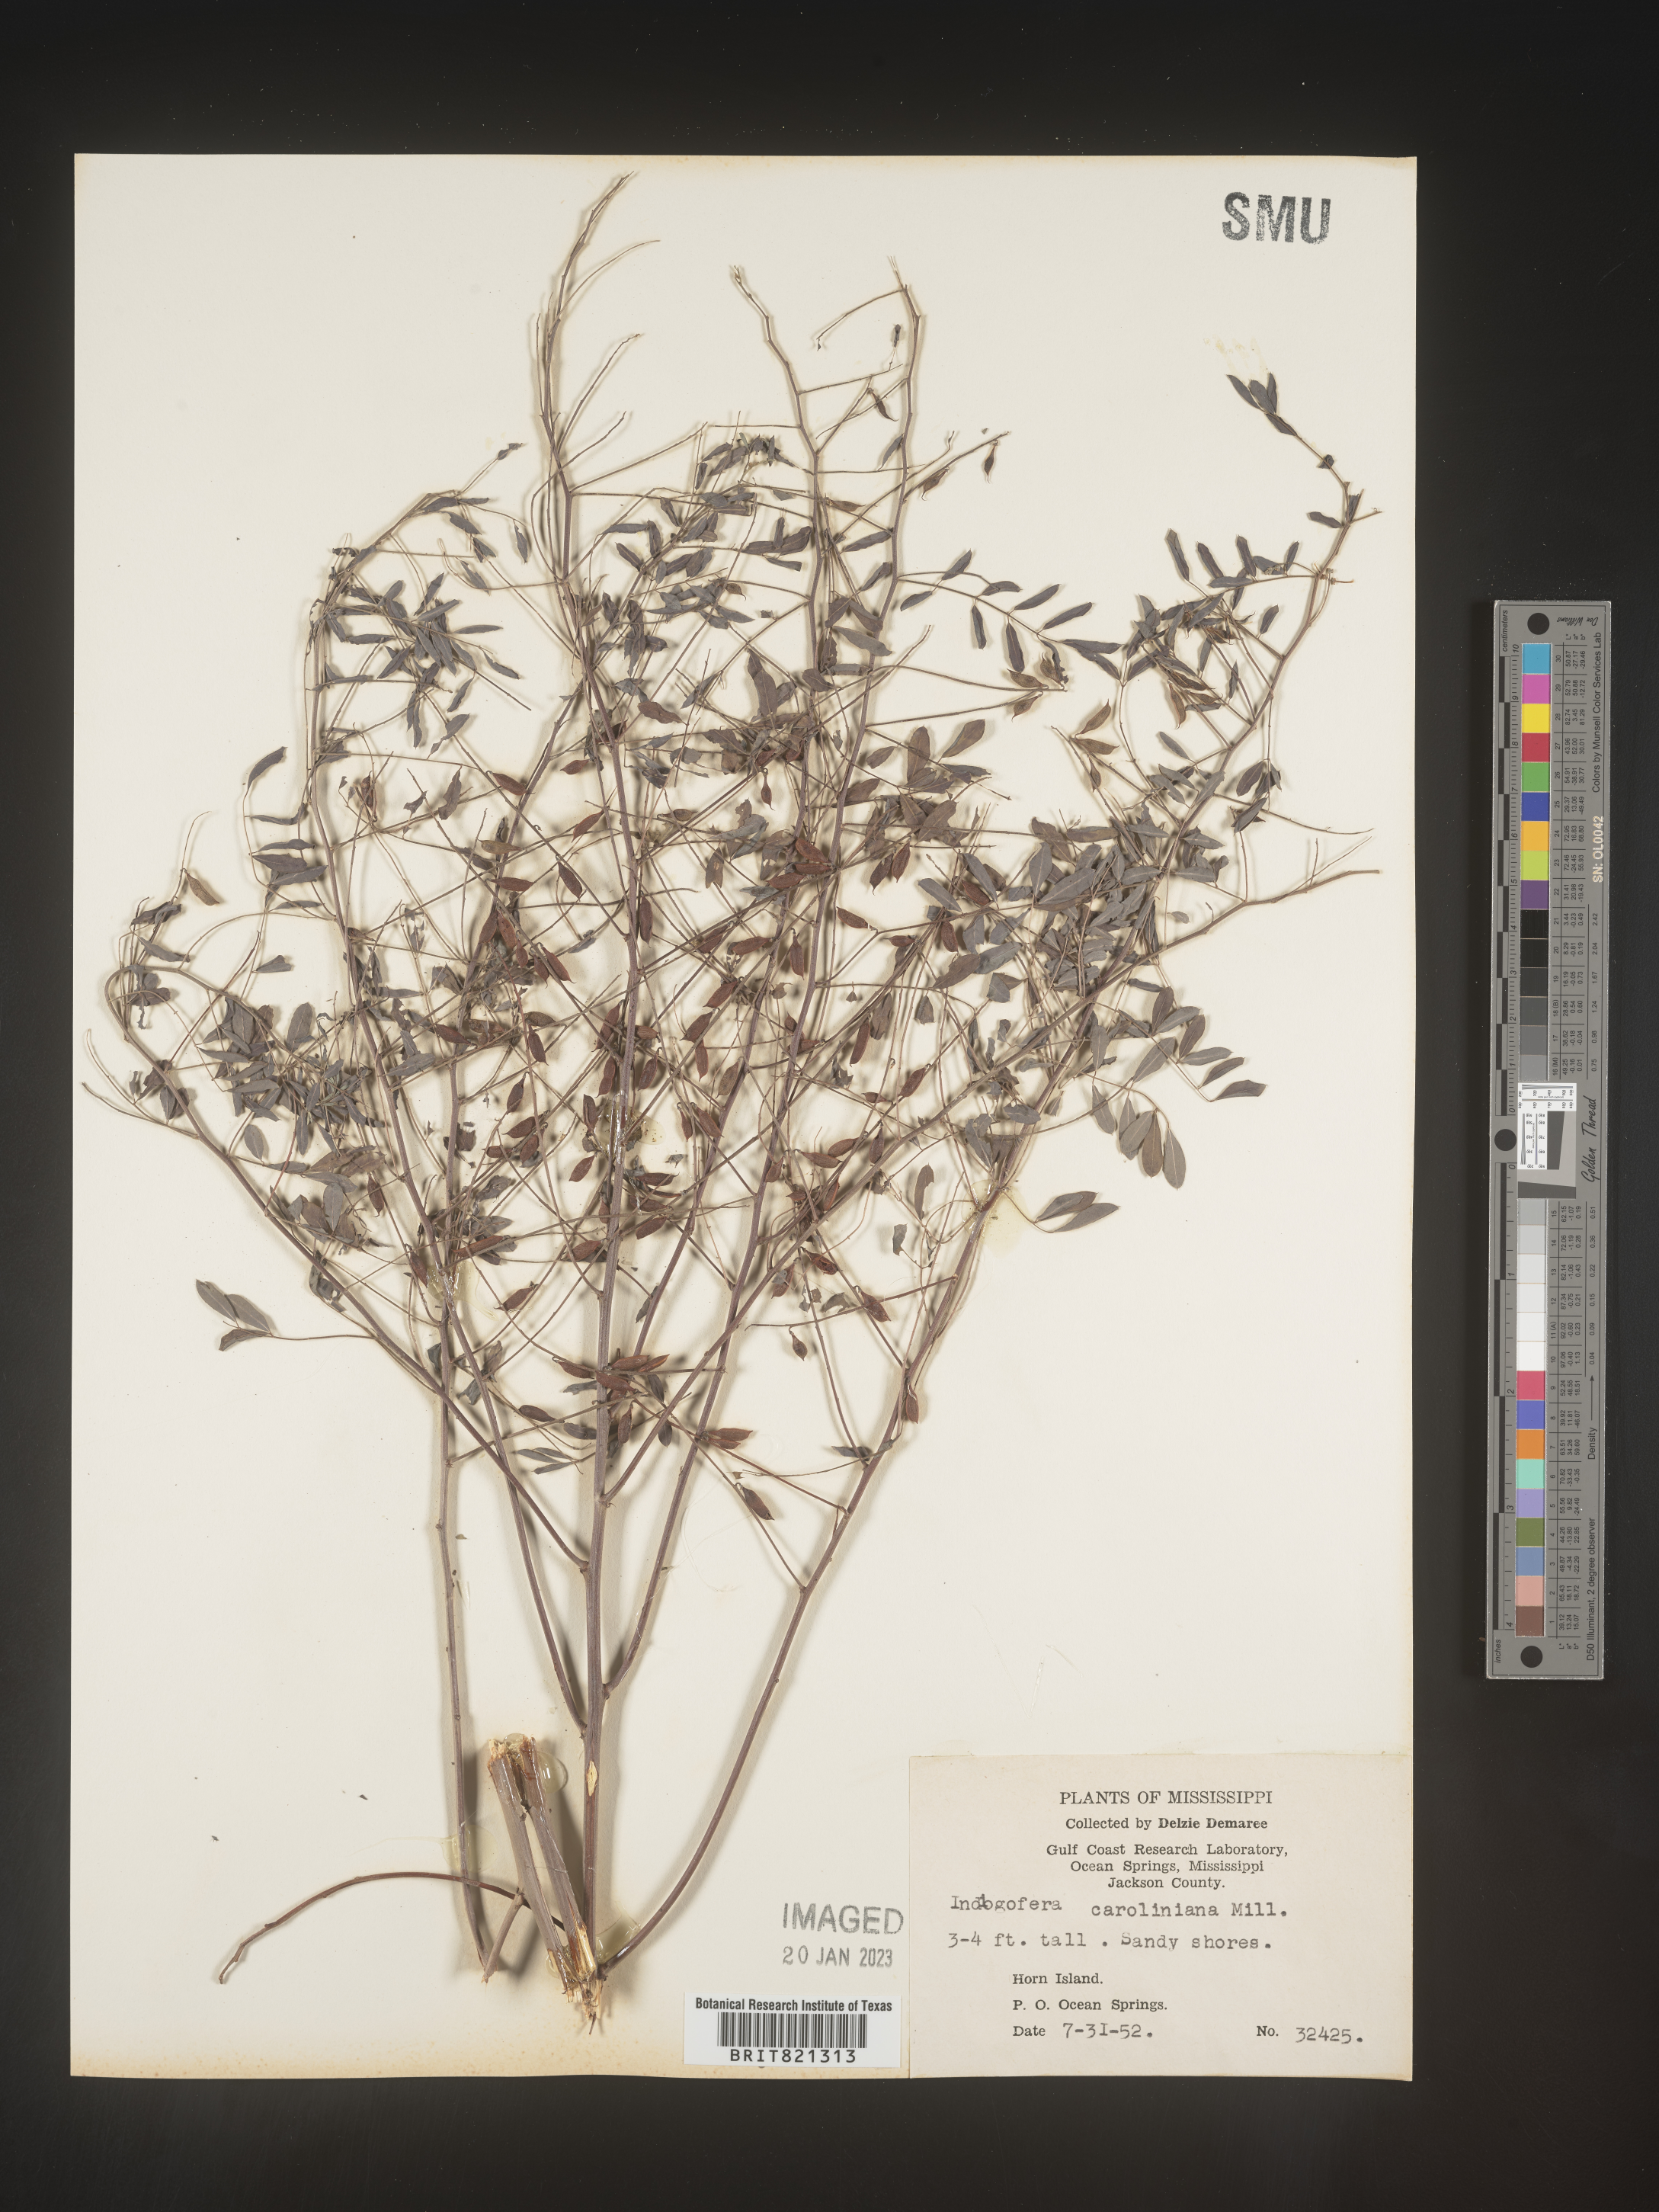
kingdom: Plantae
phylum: Tracheophyta
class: Magnoliopsida
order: Fabales
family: Fabaceae
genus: Indigofera
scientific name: Indigofera
